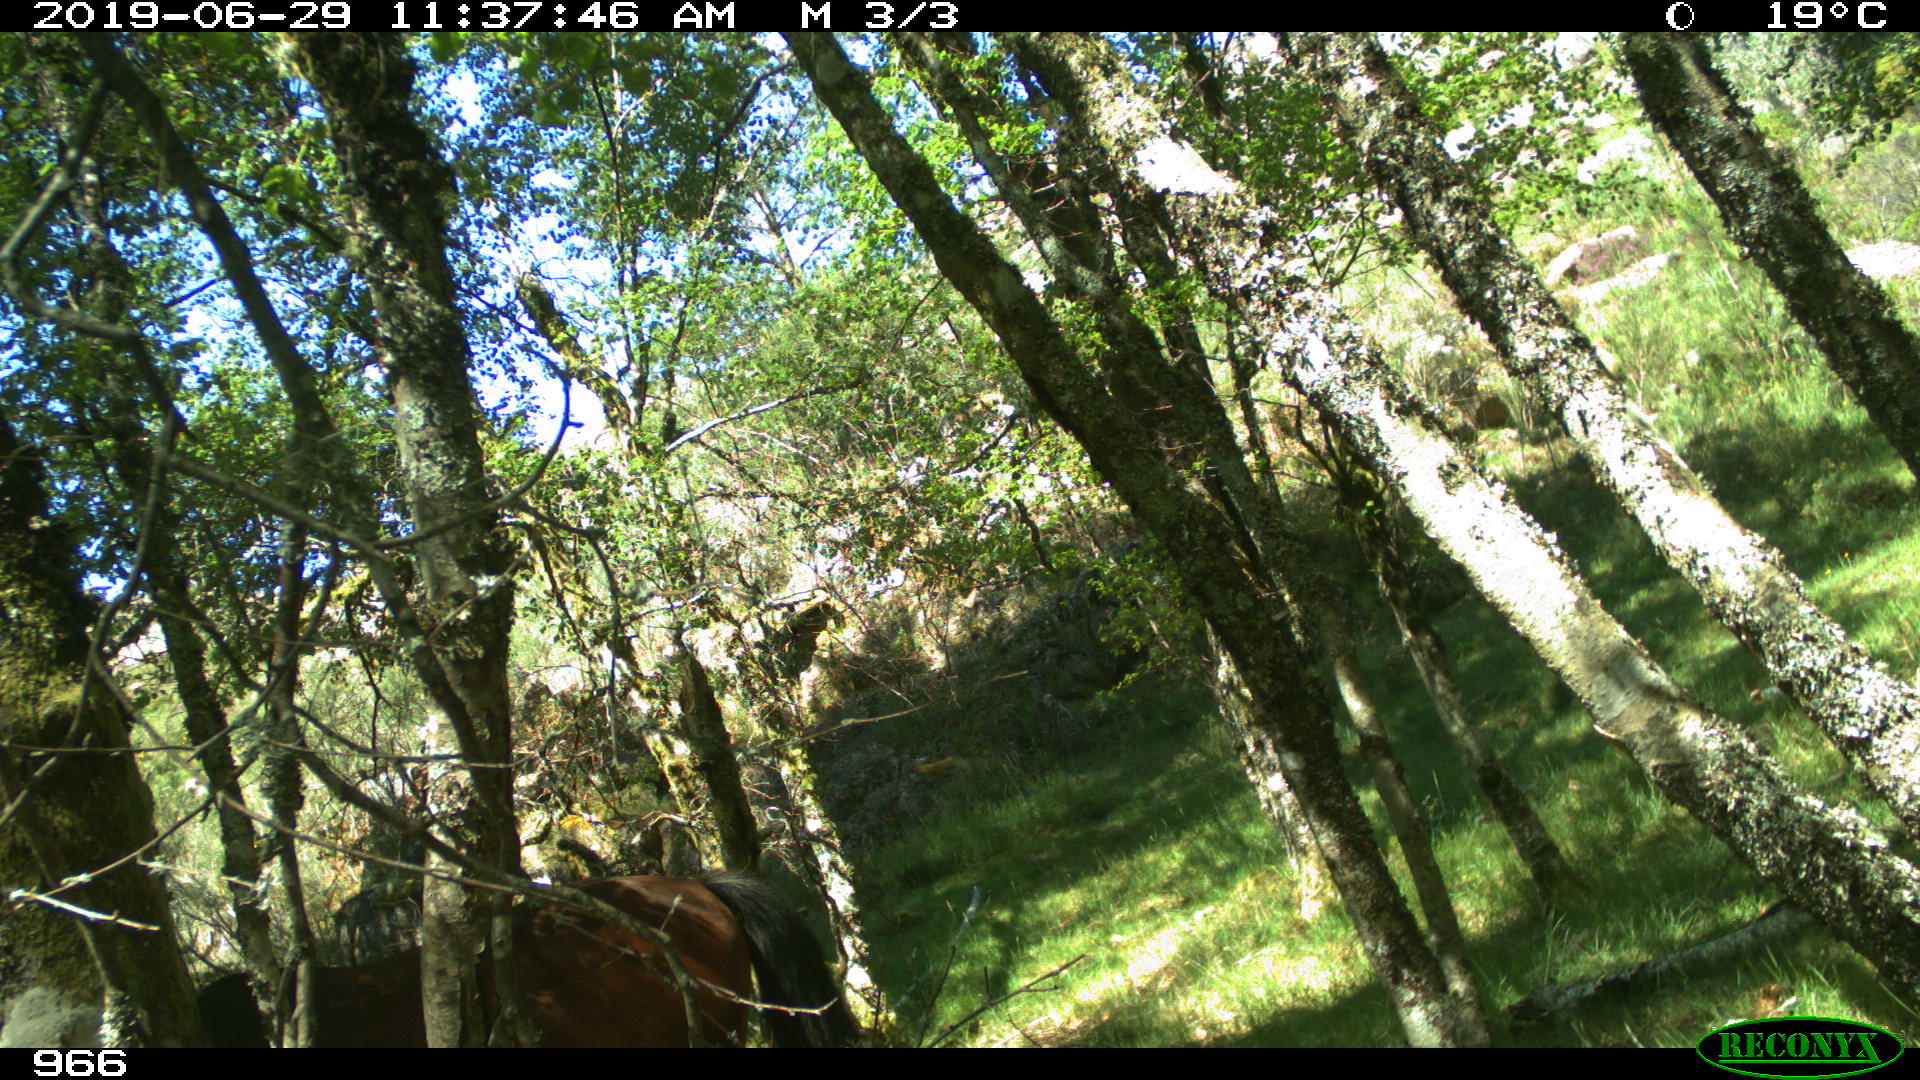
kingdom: Animalia
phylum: Chordata
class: Mammalia
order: Perissodactyla
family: Equidae
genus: Equus
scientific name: Equus caballus
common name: Horse
